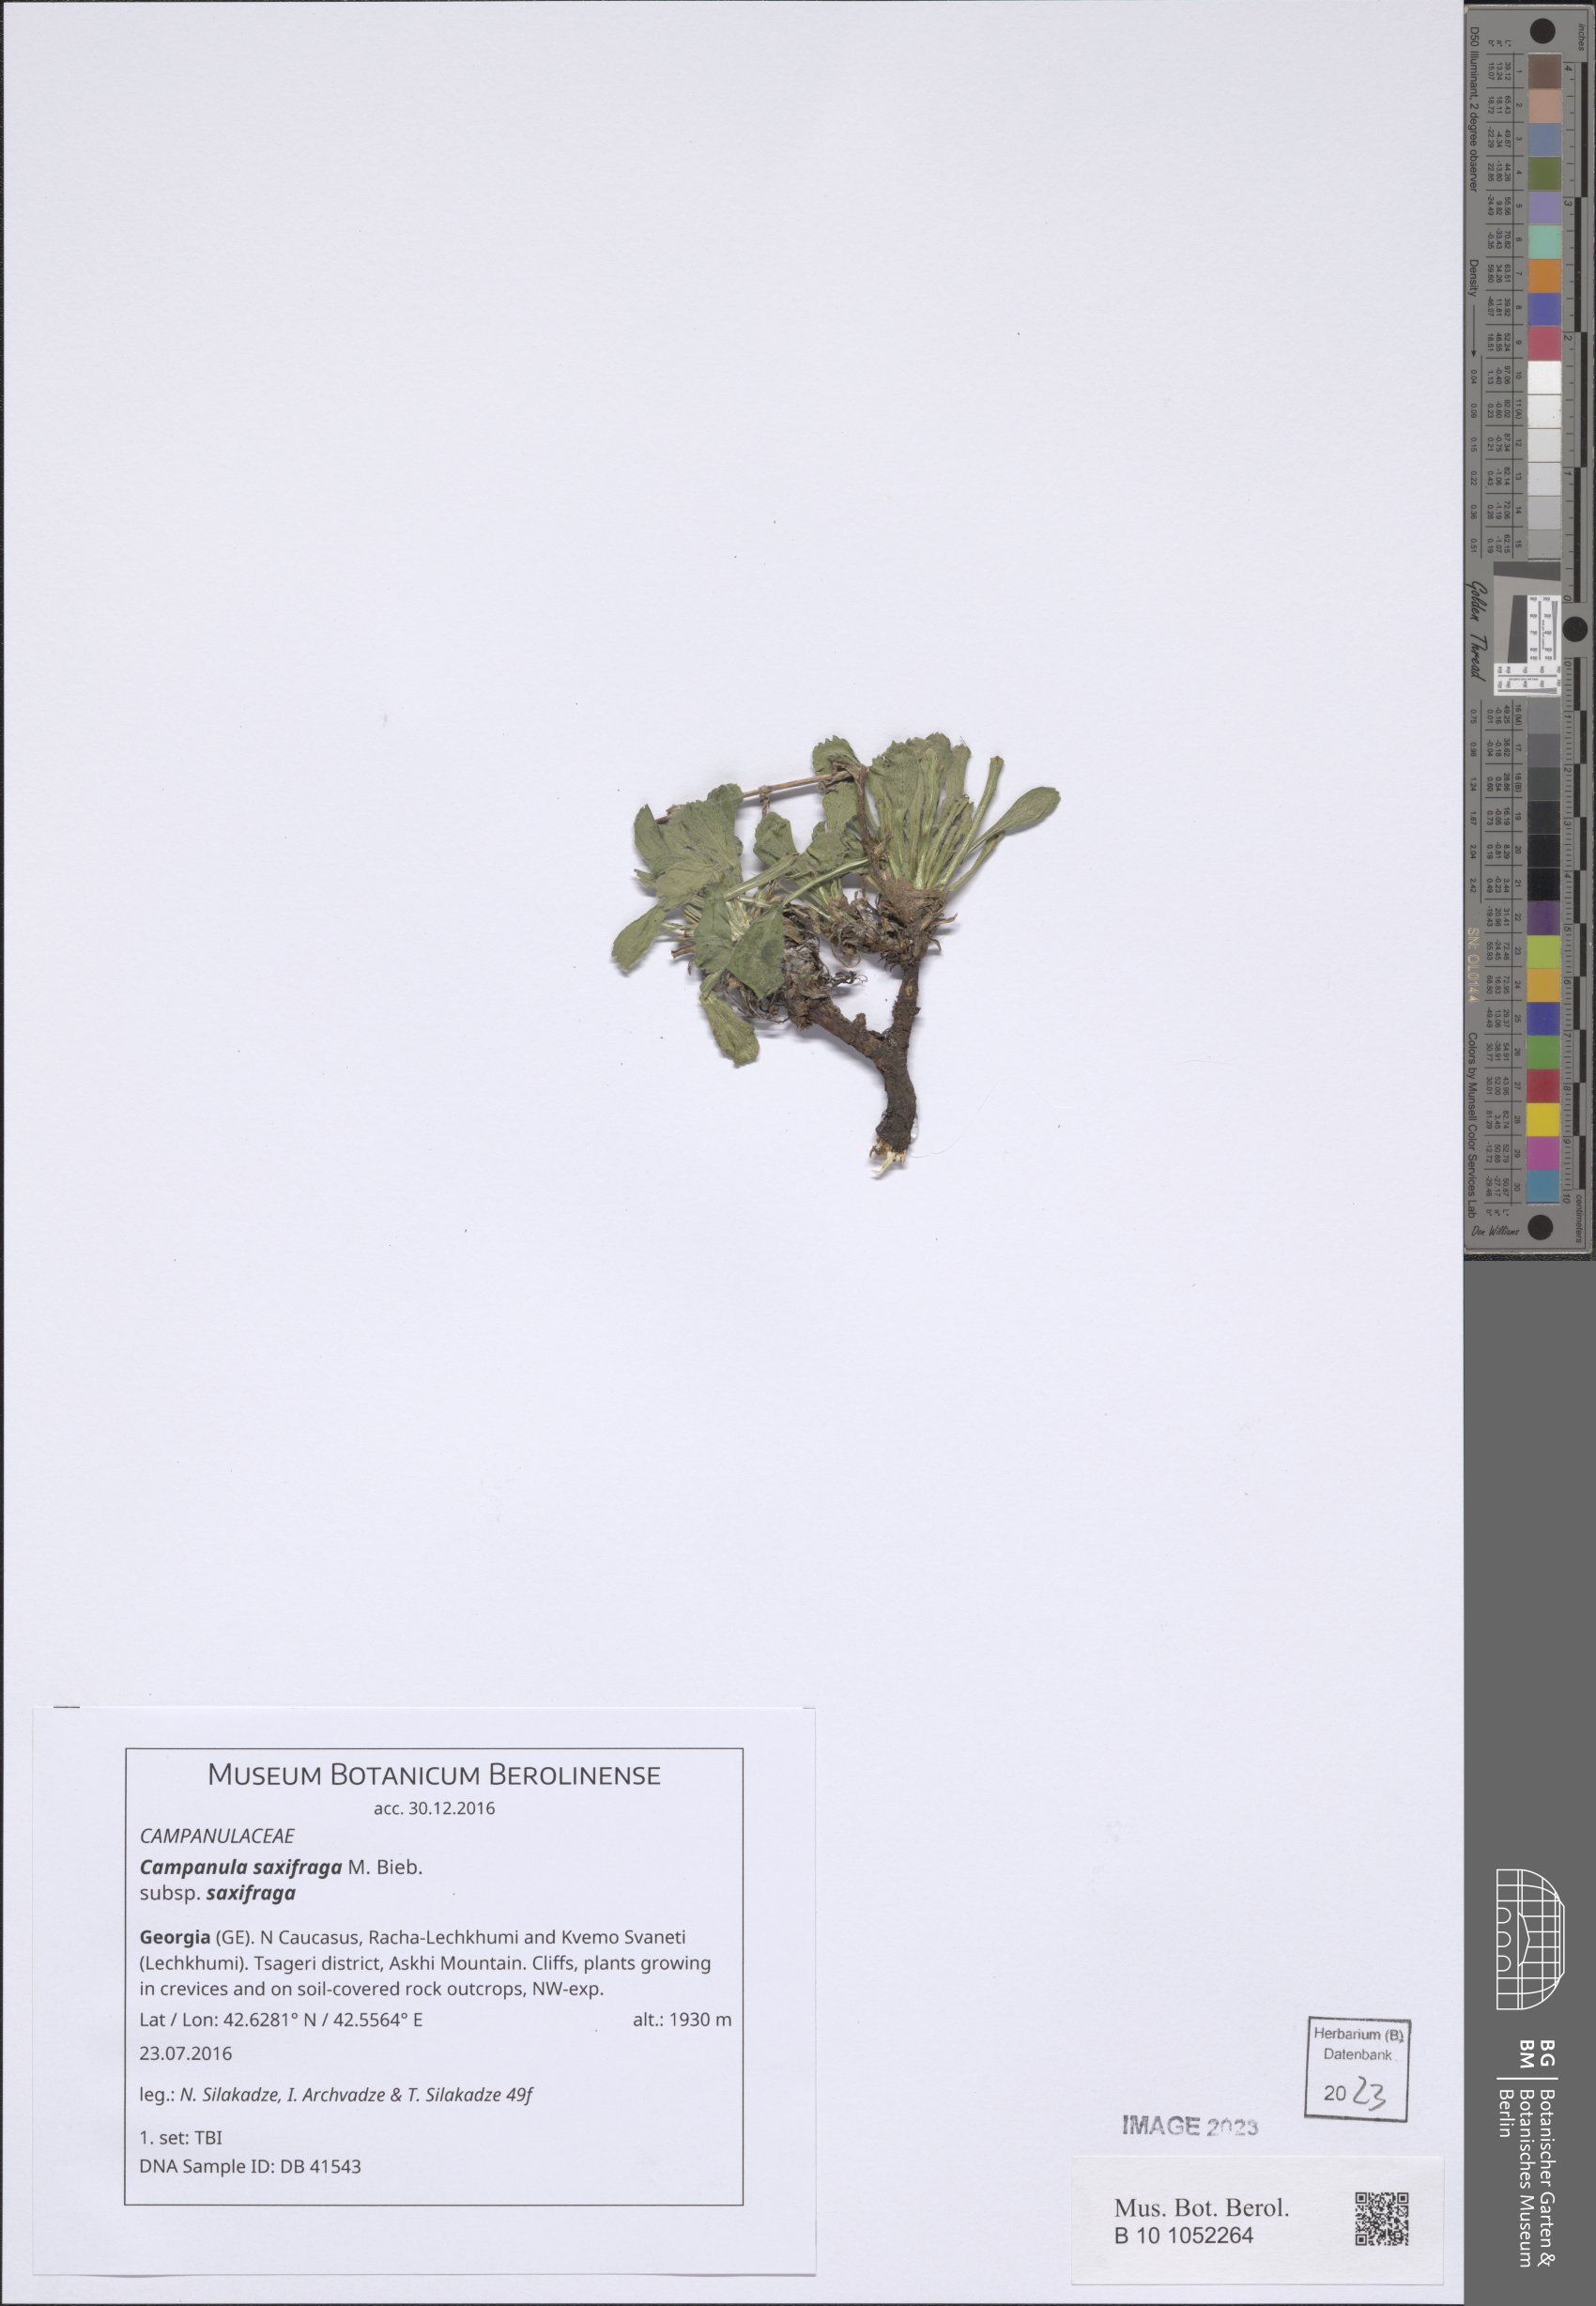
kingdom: Plantae
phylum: Tracheophyta
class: Magnoliopsida
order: Asterales
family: Campanulaceae
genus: Campanula
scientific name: Campanula saxifraga
